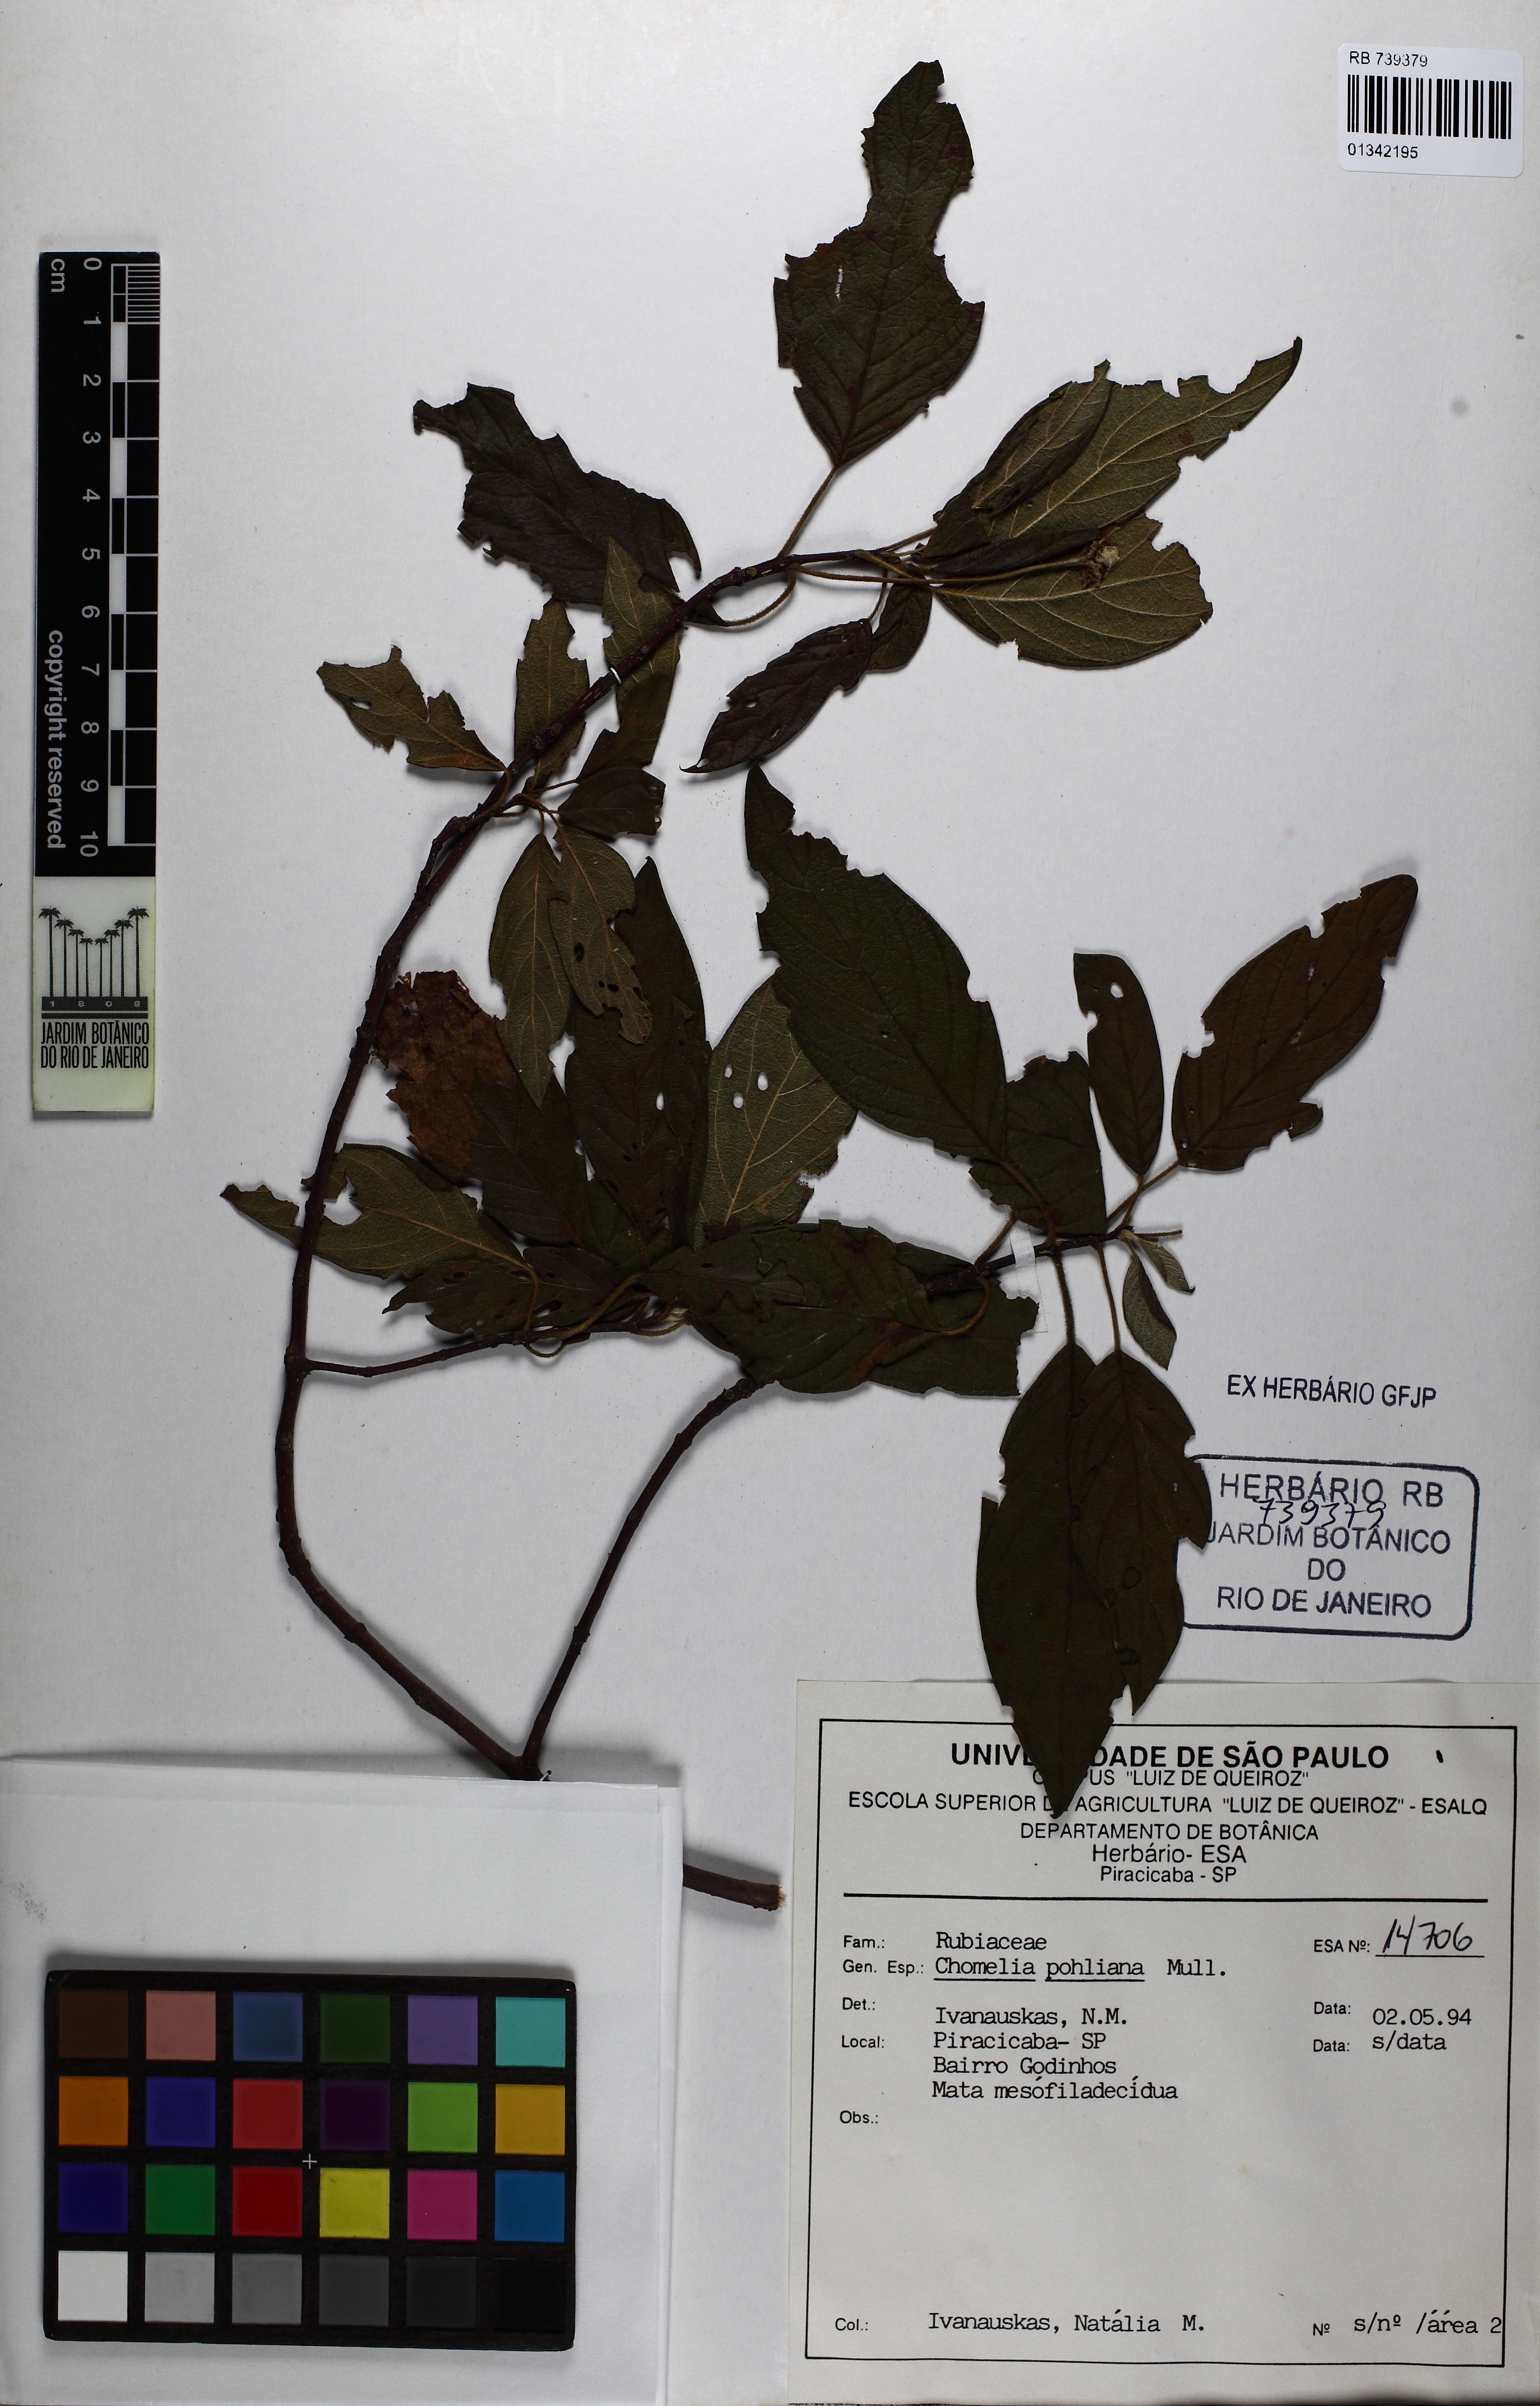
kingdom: Plantae
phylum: Tracheophyta
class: Magnoliopsida
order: Gentianales
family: Rubiaceae
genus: Chomelia
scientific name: Chomelia pohliana
